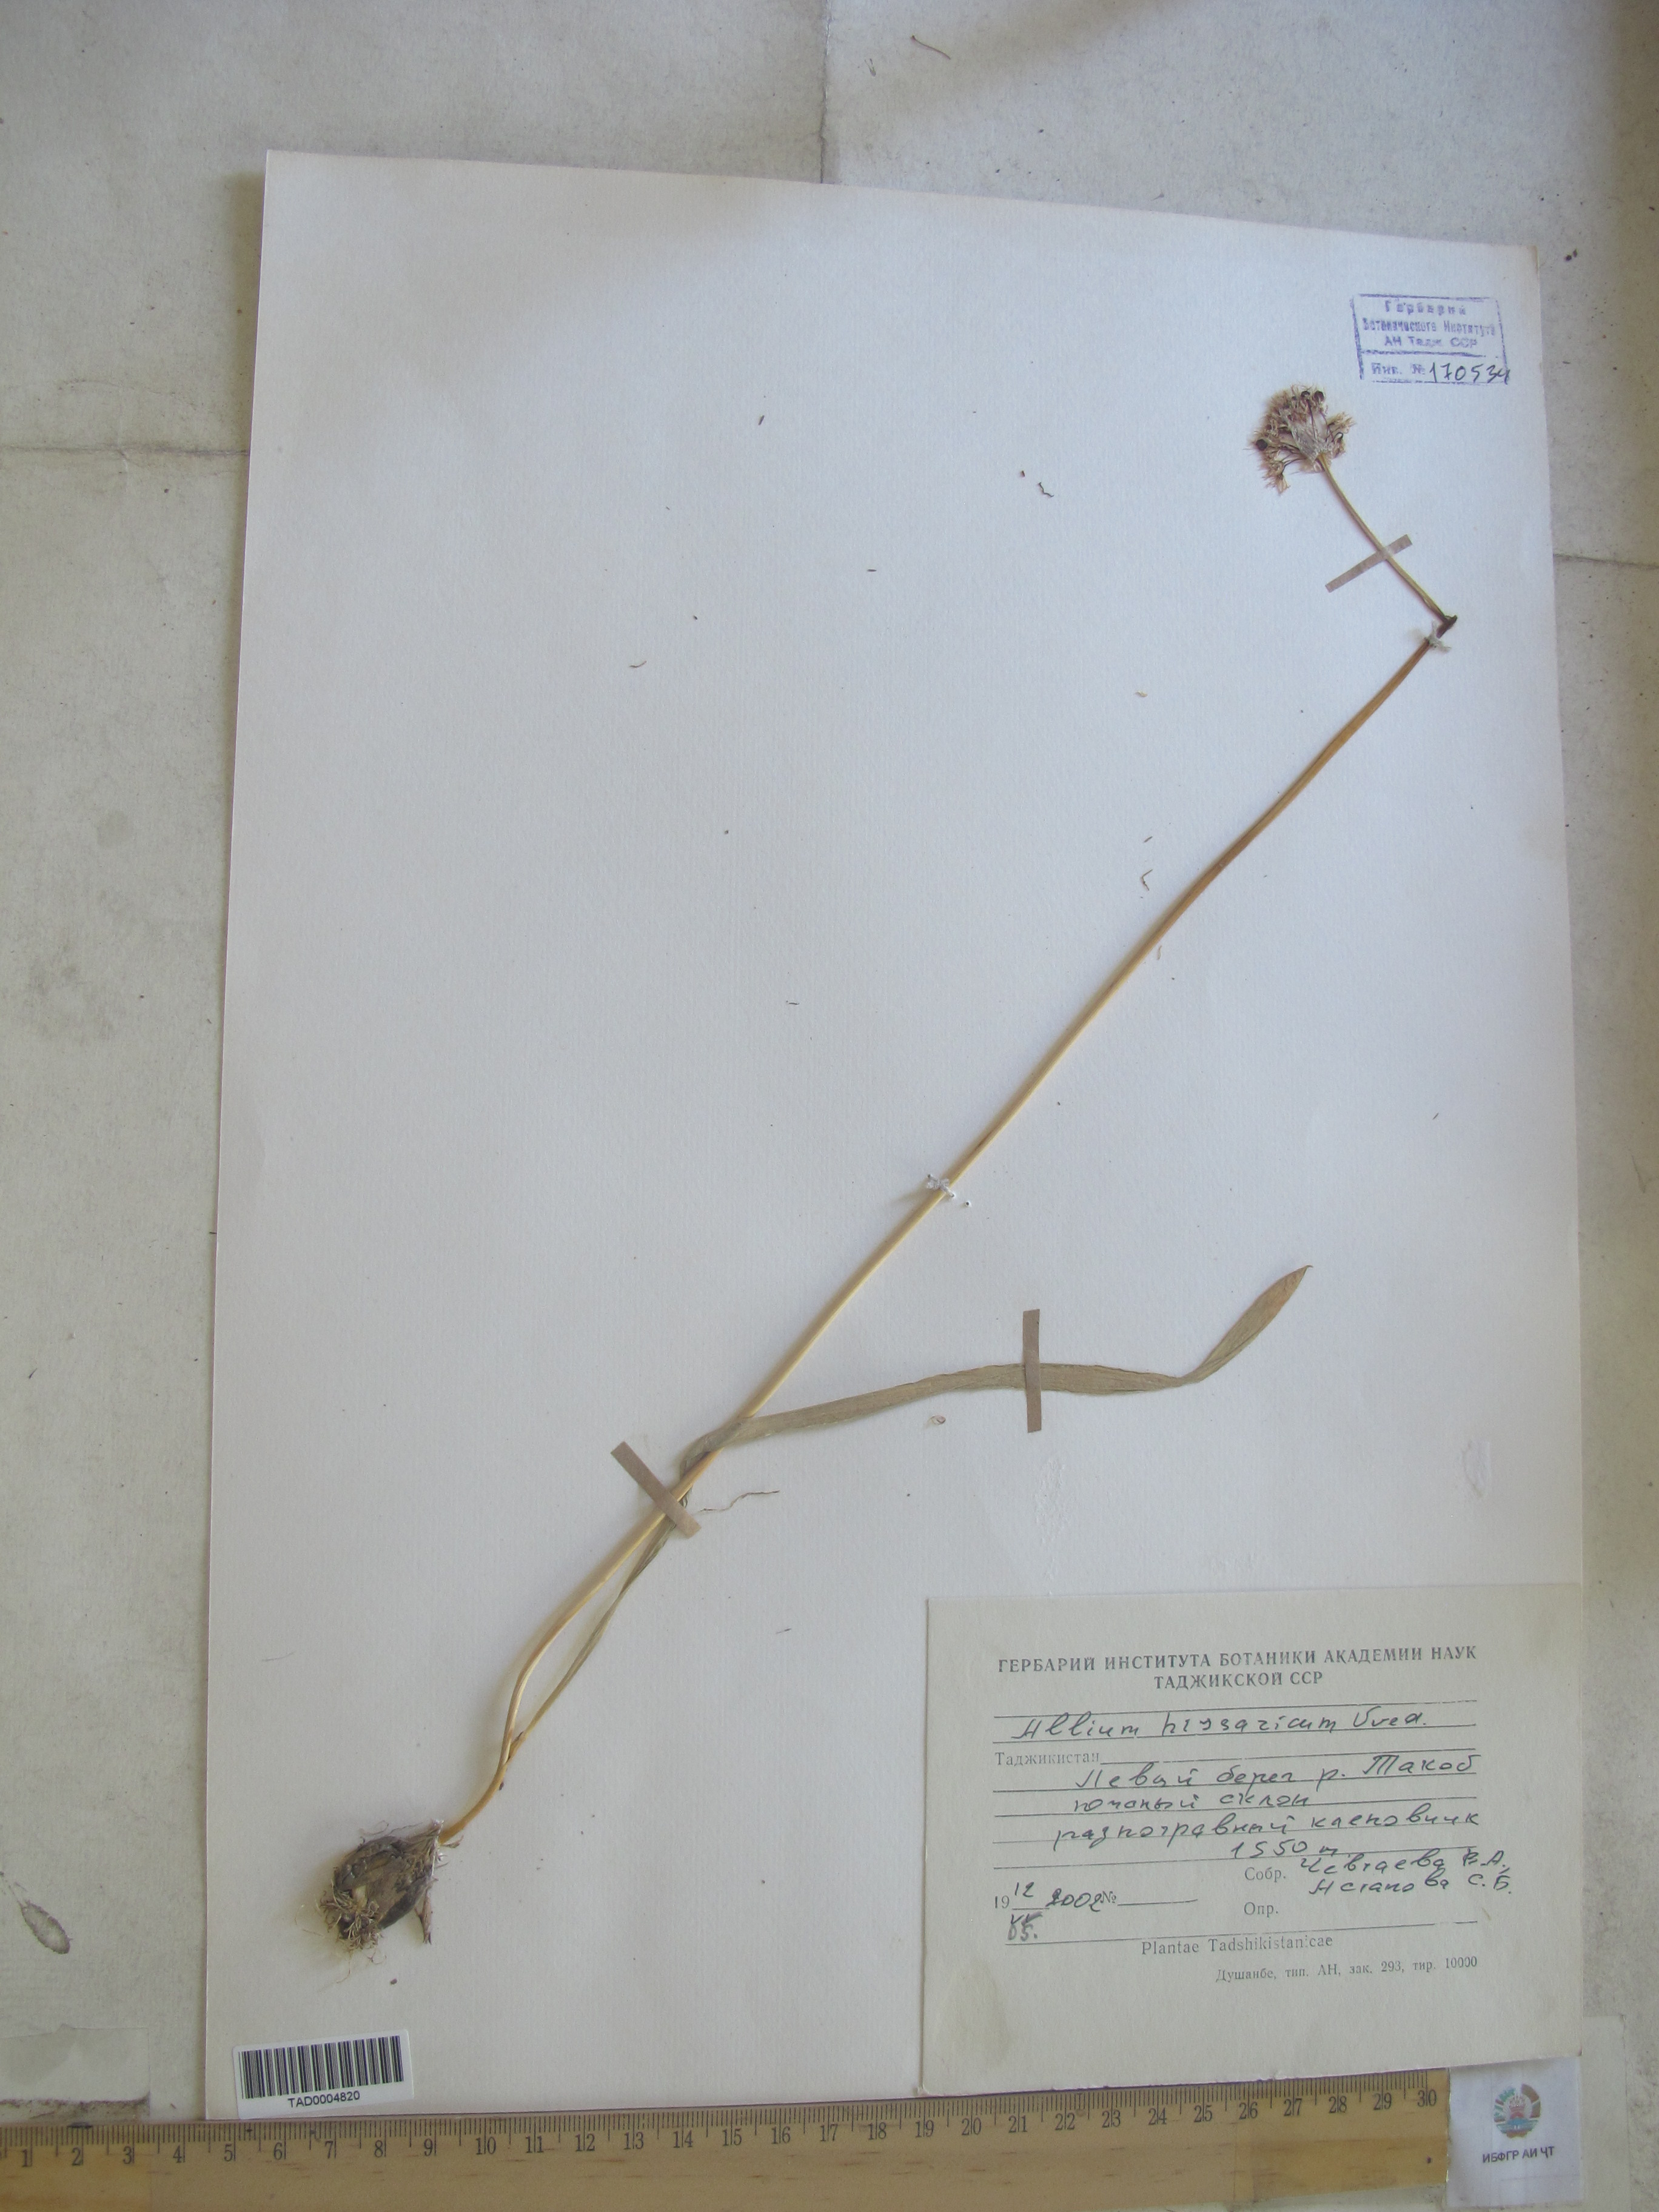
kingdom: Plantae
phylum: Tracheophyta
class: Liliopsida
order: Asparagales
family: Amaryllidaceae
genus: Allium
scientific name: Allium hissaricum
